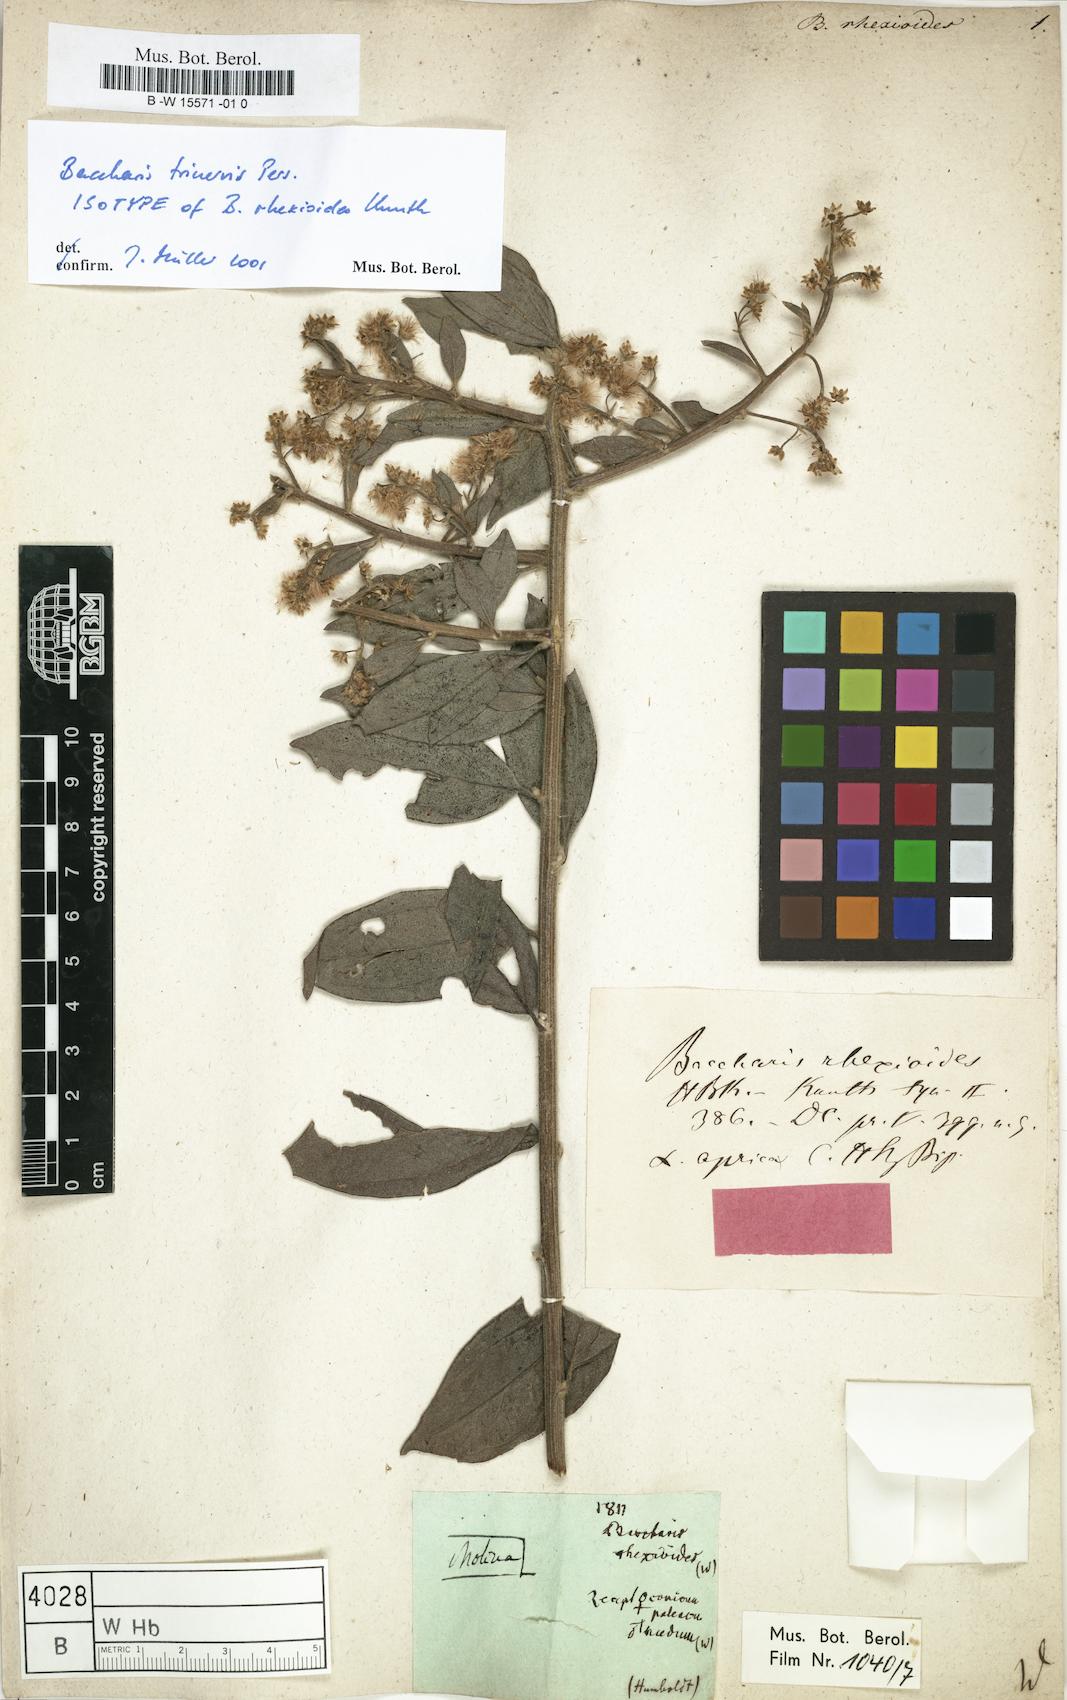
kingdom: Plantae
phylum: Tracheophyta
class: Magnoliopsida
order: Asterales
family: Asteraceae
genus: Baccharis
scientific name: Baccharis trinervis
